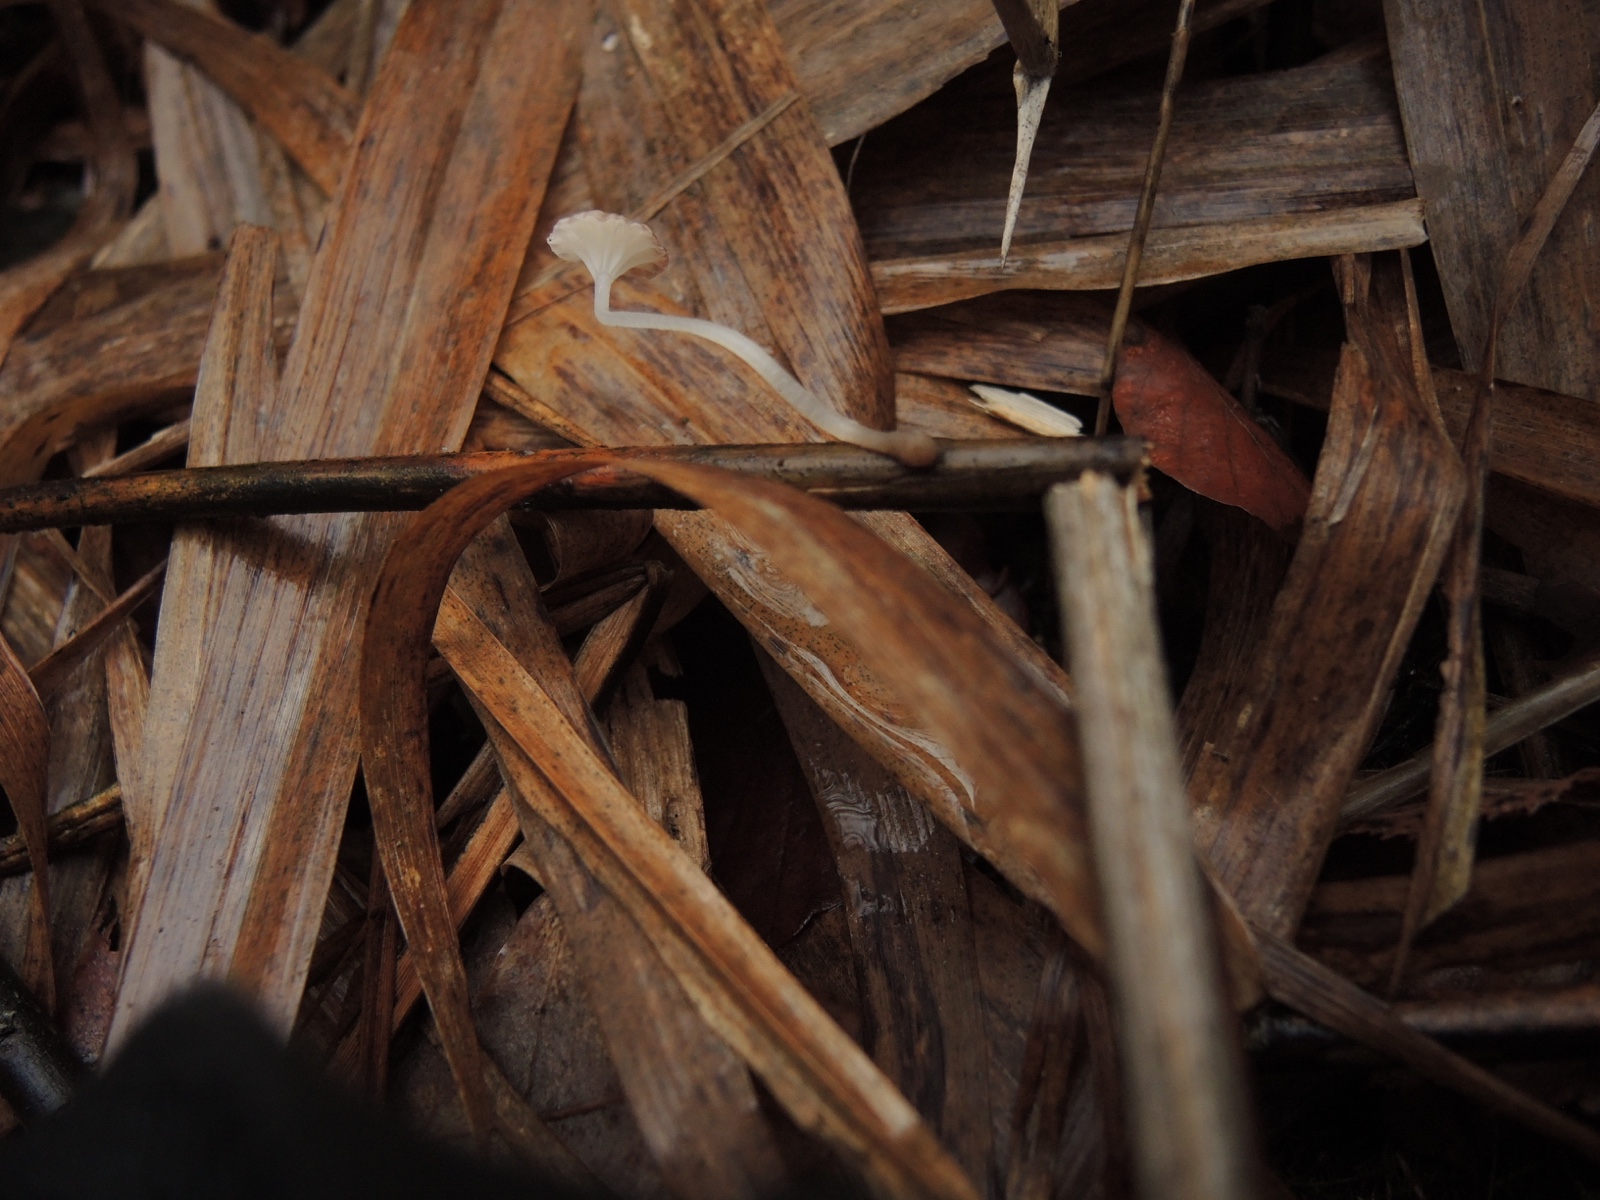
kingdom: Fungi
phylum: Basidiomycota
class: Agaricomycetes
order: Agaricales
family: Mycenaceae
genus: Mycena
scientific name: Mycena belliae
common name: tagrørs-huesvamp
